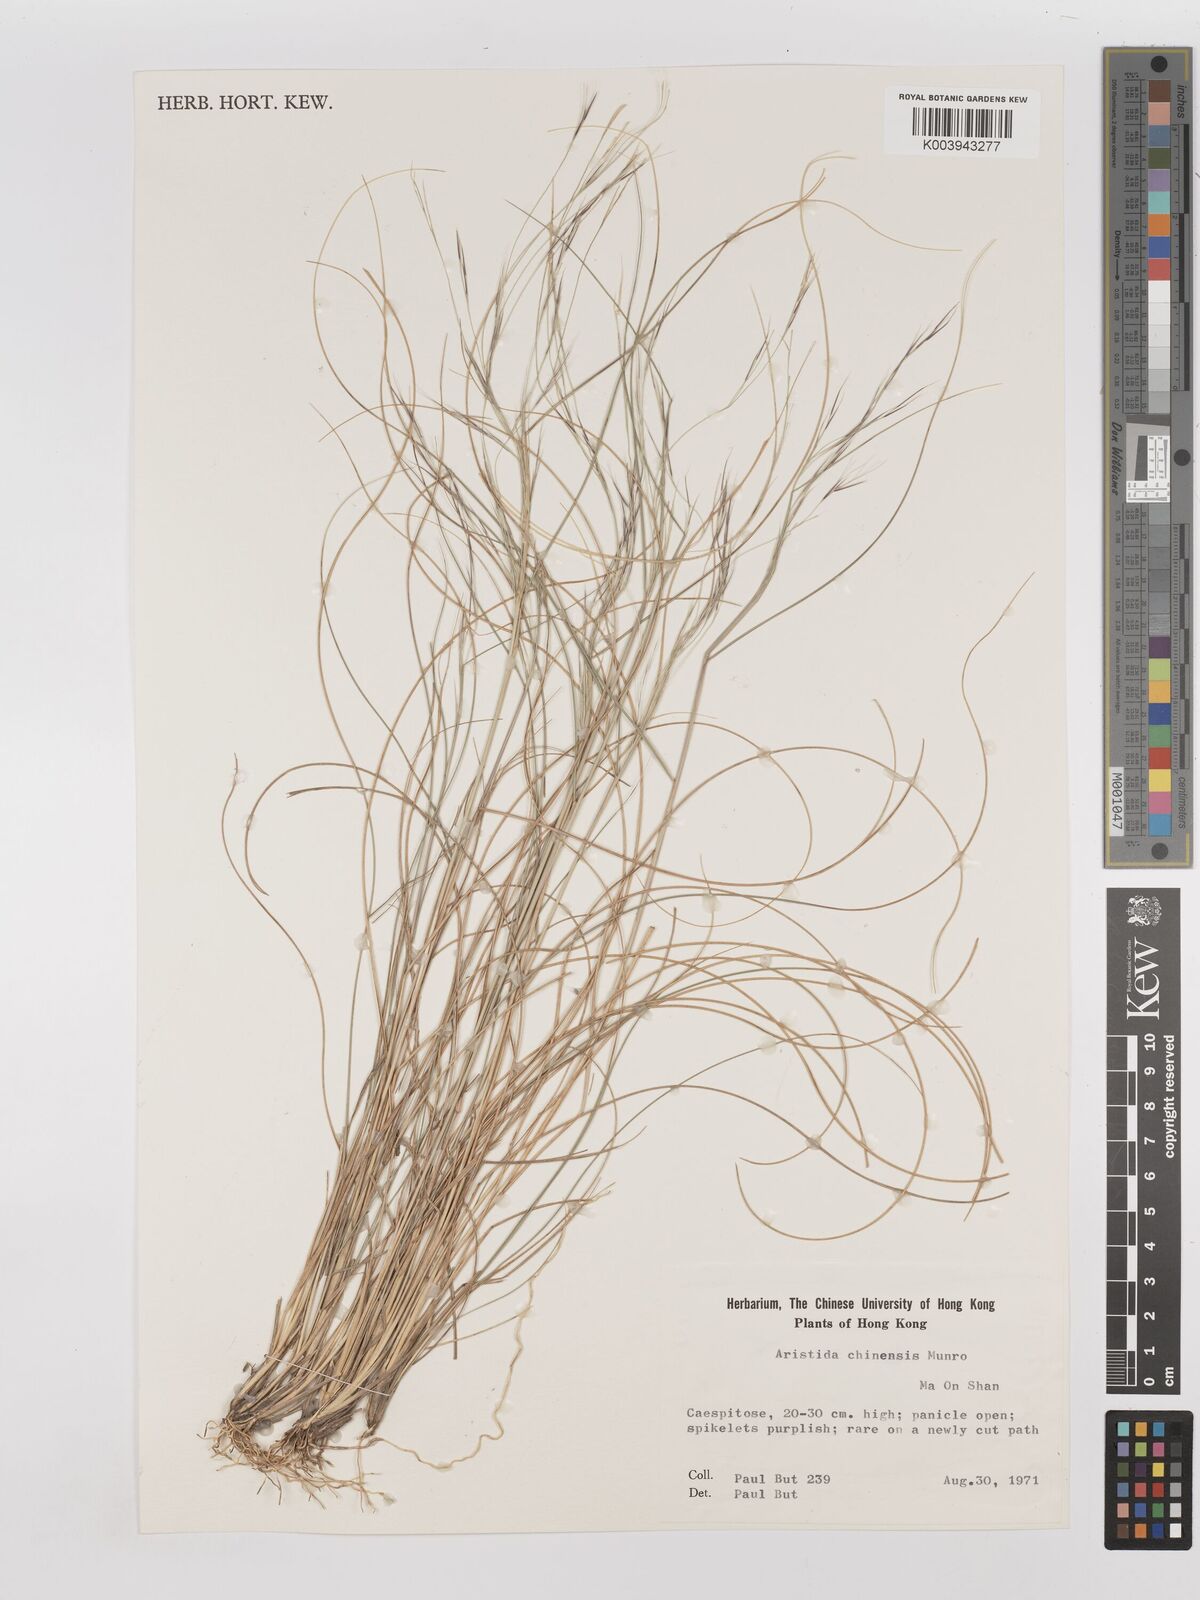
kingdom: Plantae
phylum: Tracheophyta
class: Liliopsida
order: Poales
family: Poaceae
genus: Aristida
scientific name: Aristida chinensis
